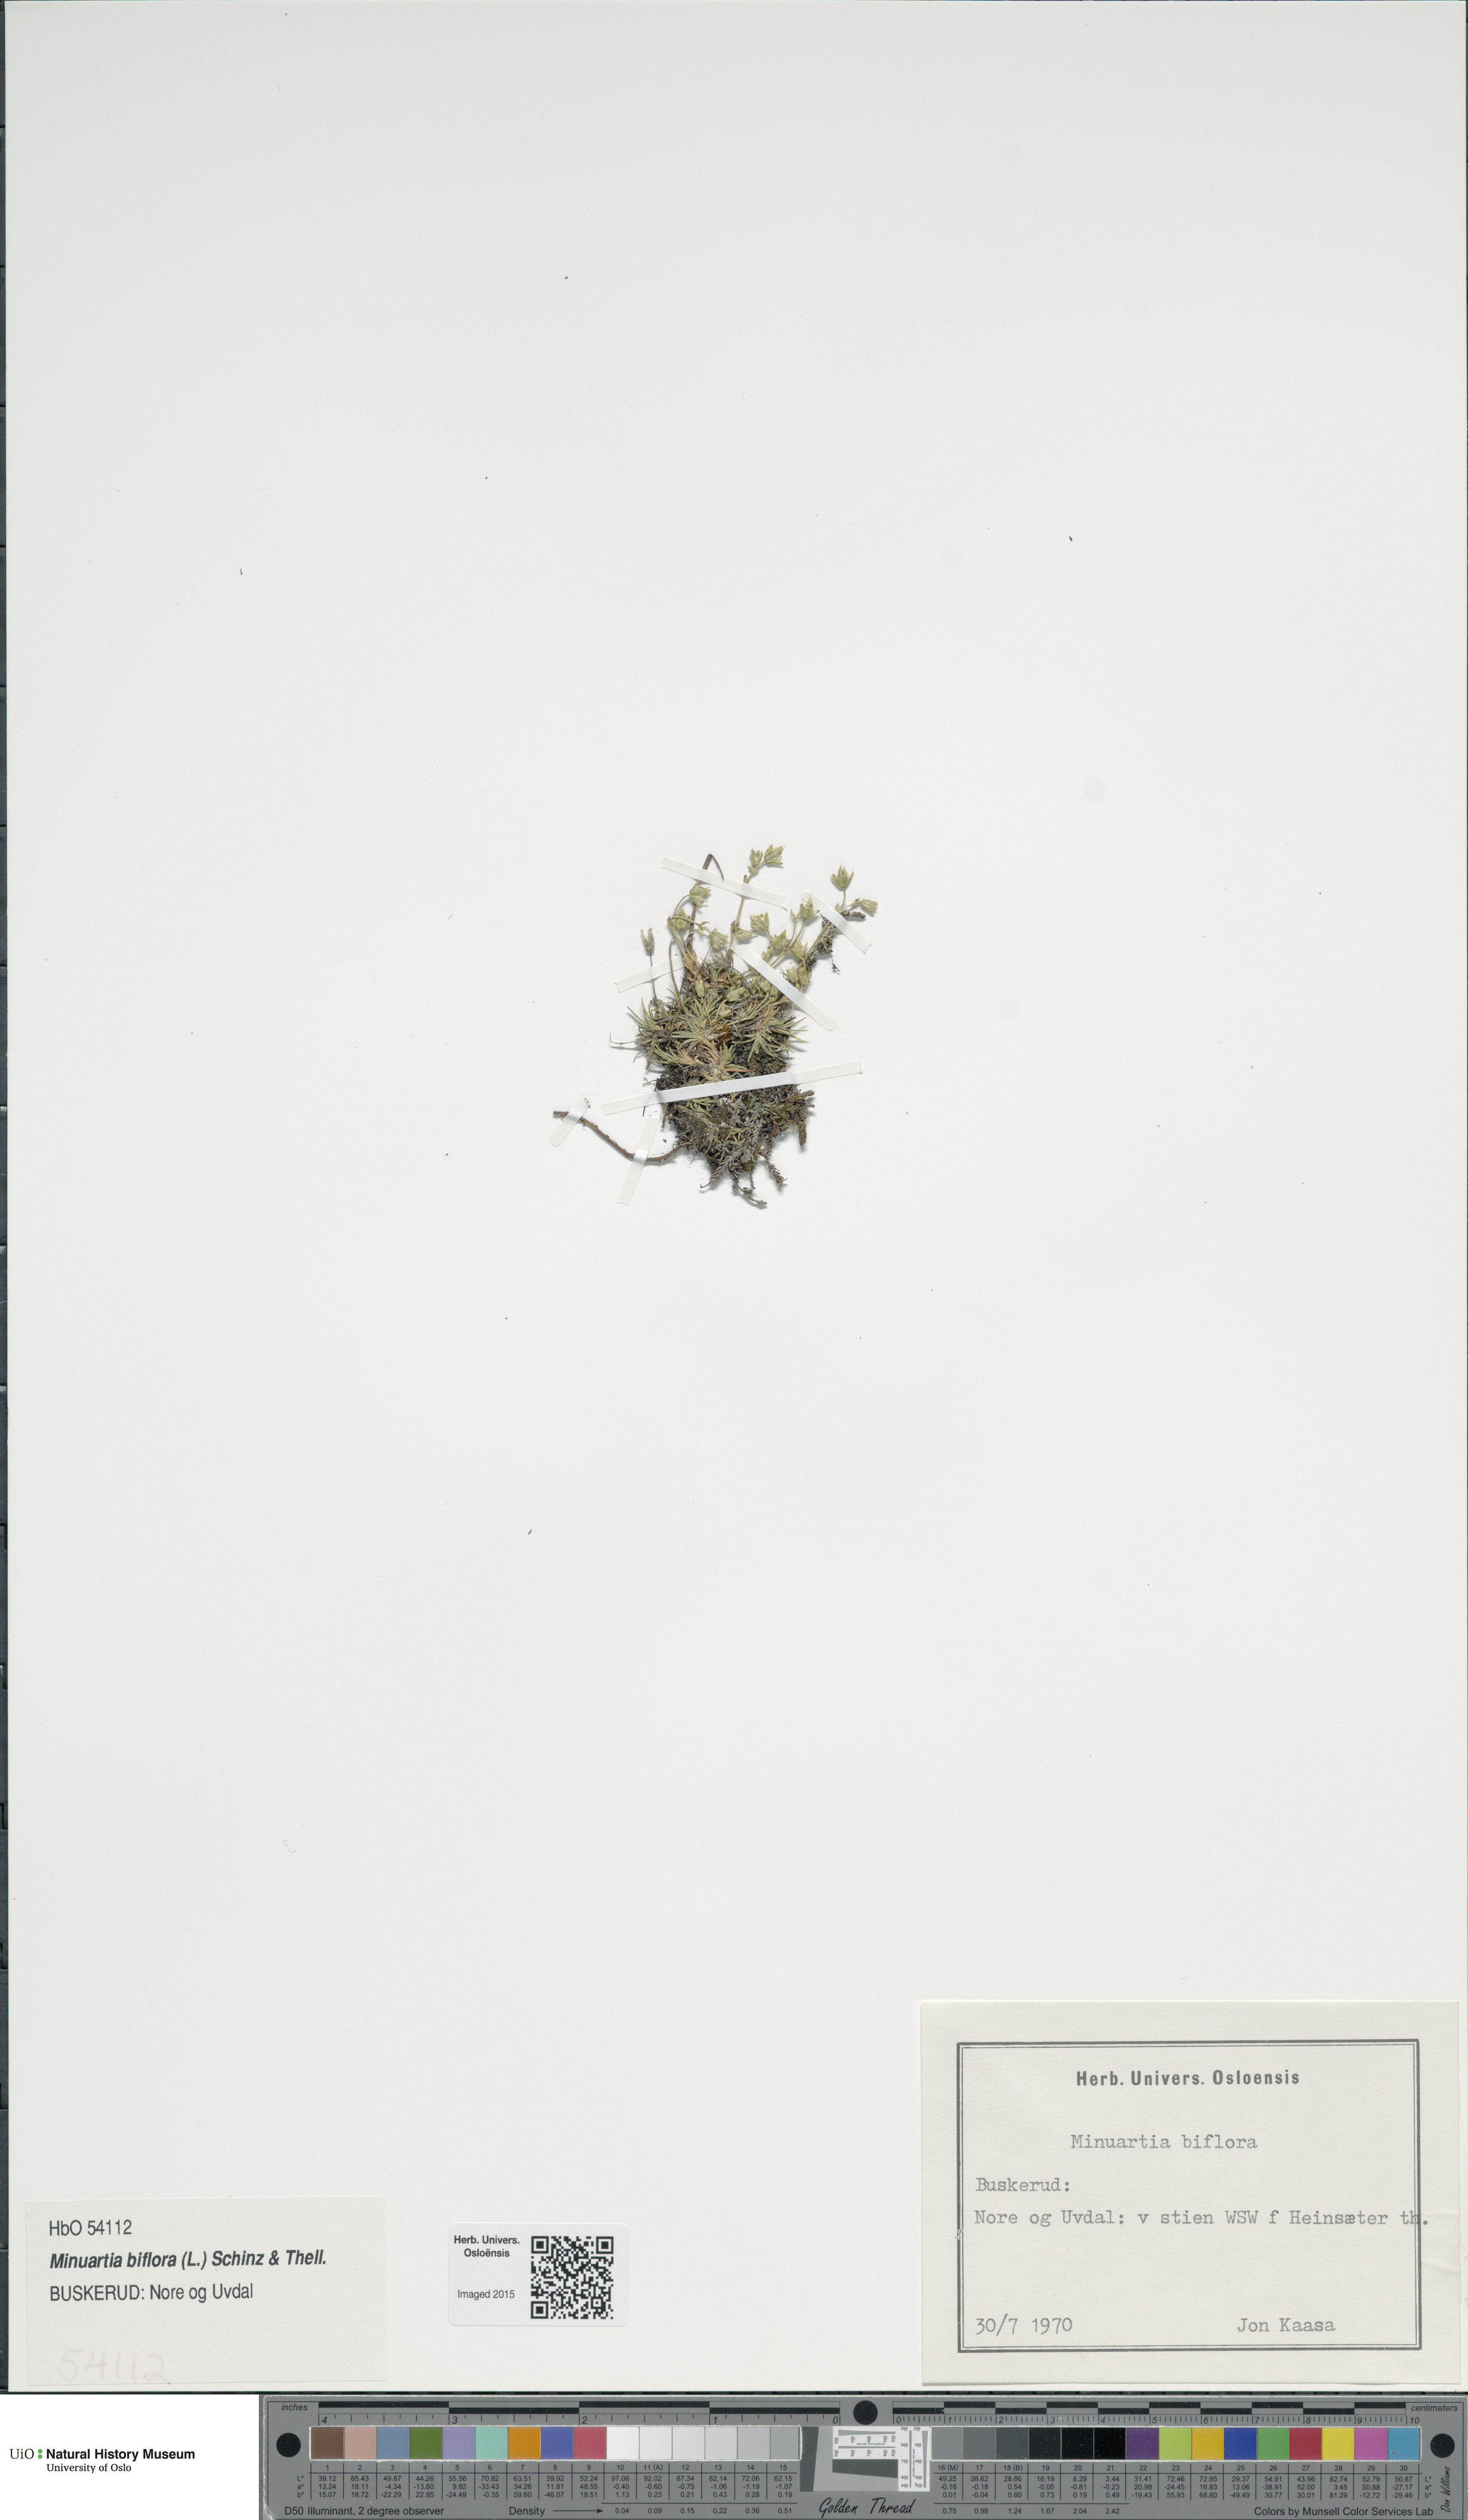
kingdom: Plantae
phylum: Tracheophyta
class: Magnoliopsida
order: Caryophyllales
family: Caryophyllaceae
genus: Cherleria
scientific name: Cherleria biflora
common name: Mountain sandwort
